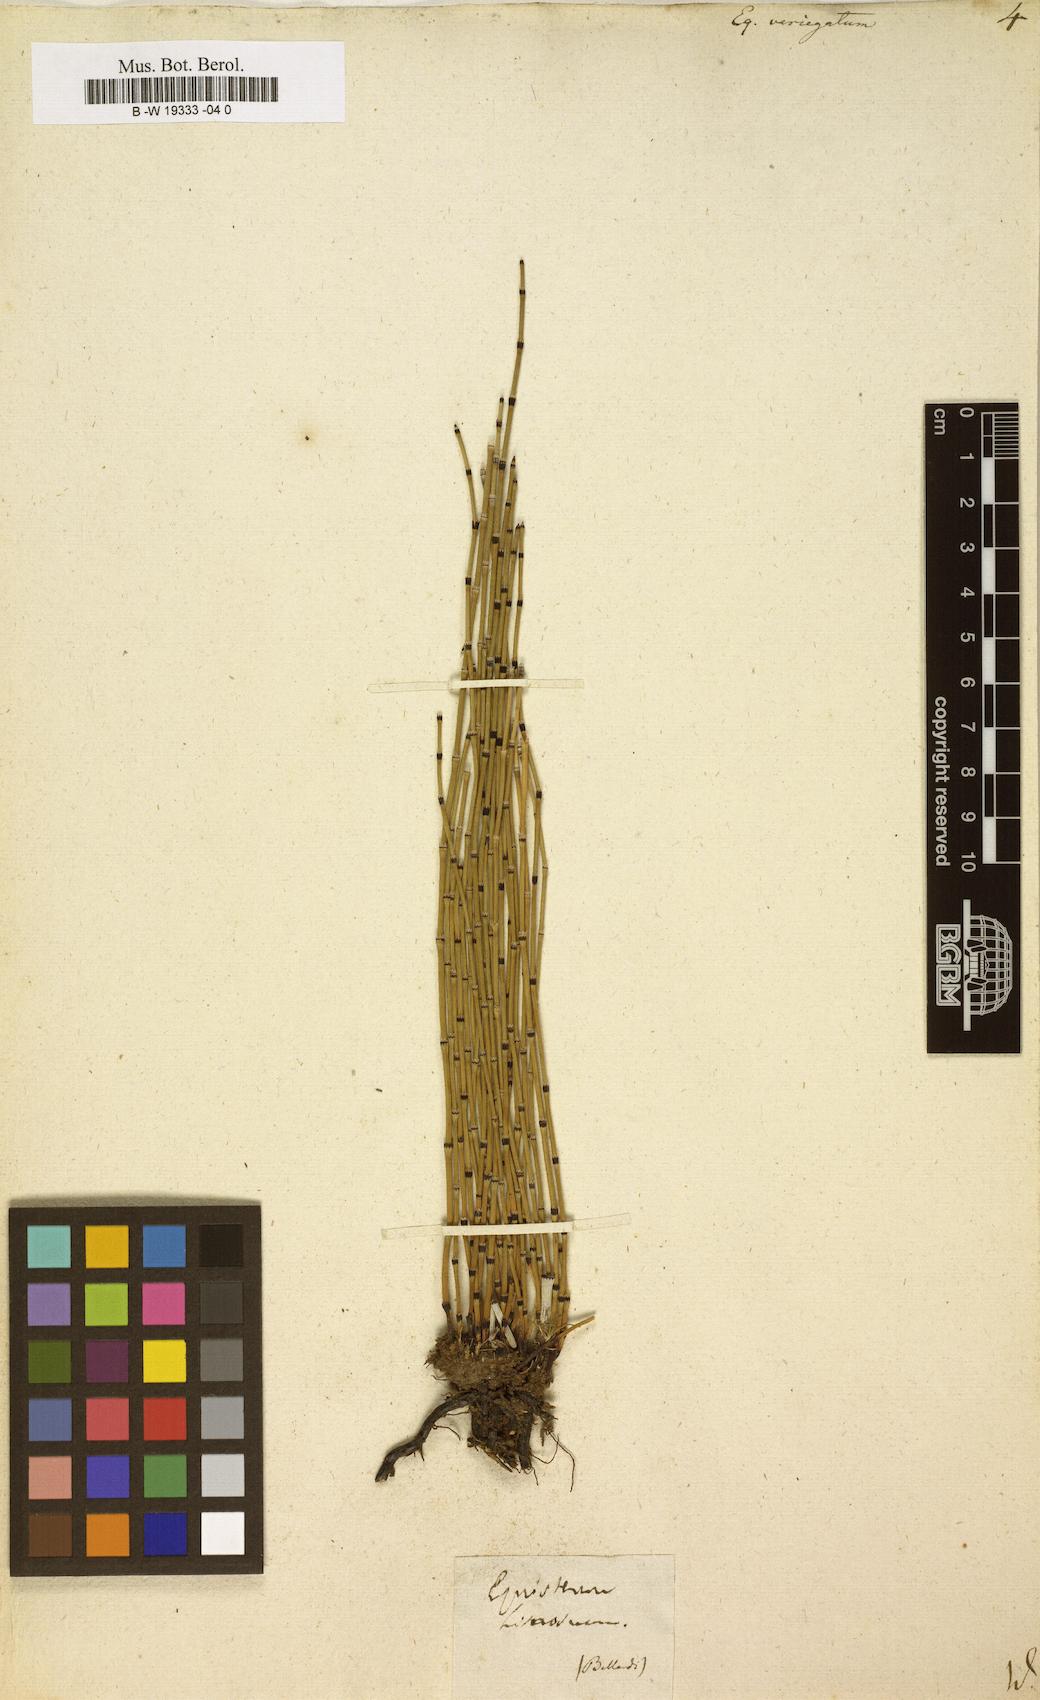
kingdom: Plantae
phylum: Tracheophyta
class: Polypodiopsida
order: Equisetales
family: Equisetaceae
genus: Equisetum
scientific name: Equisetum variegatum
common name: Variegated horsetail
